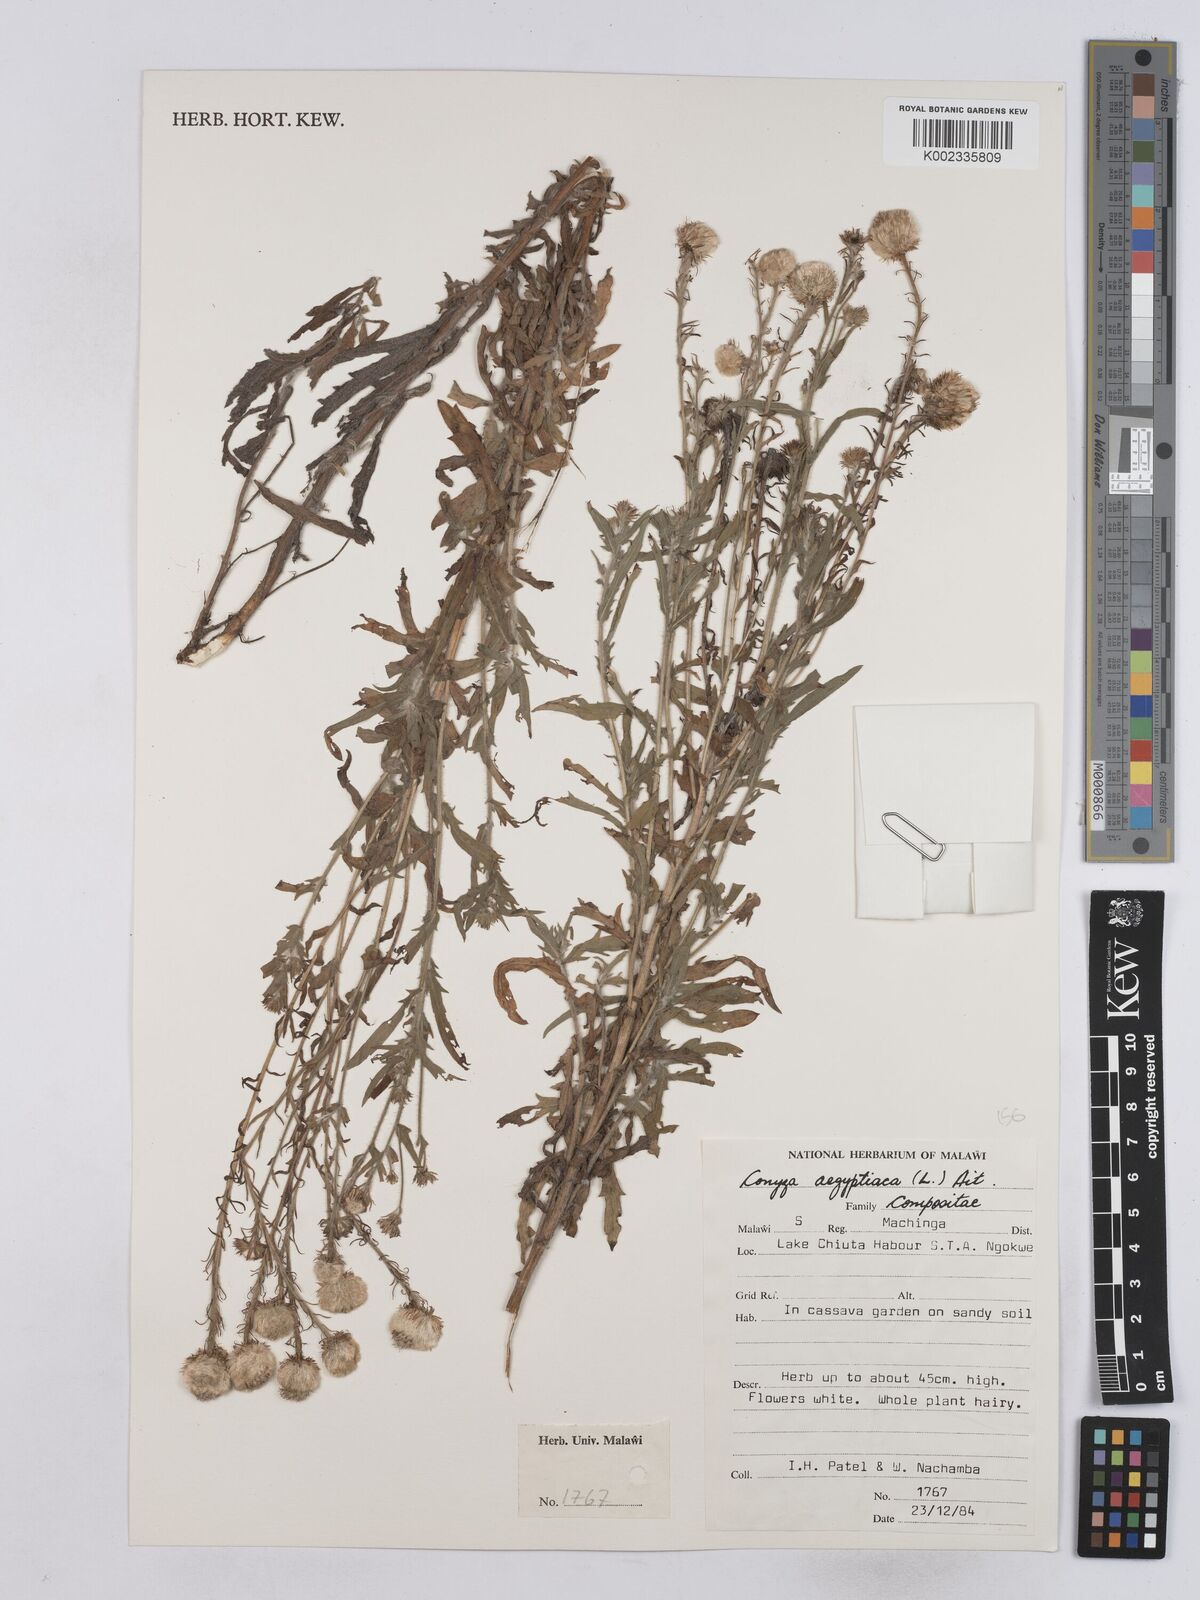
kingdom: Plantae
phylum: Tracheophyta
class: Magnoliopsida
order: Asterales
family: Asteraceae
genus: Nidorella
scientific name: Nidorella aegyptiaca
